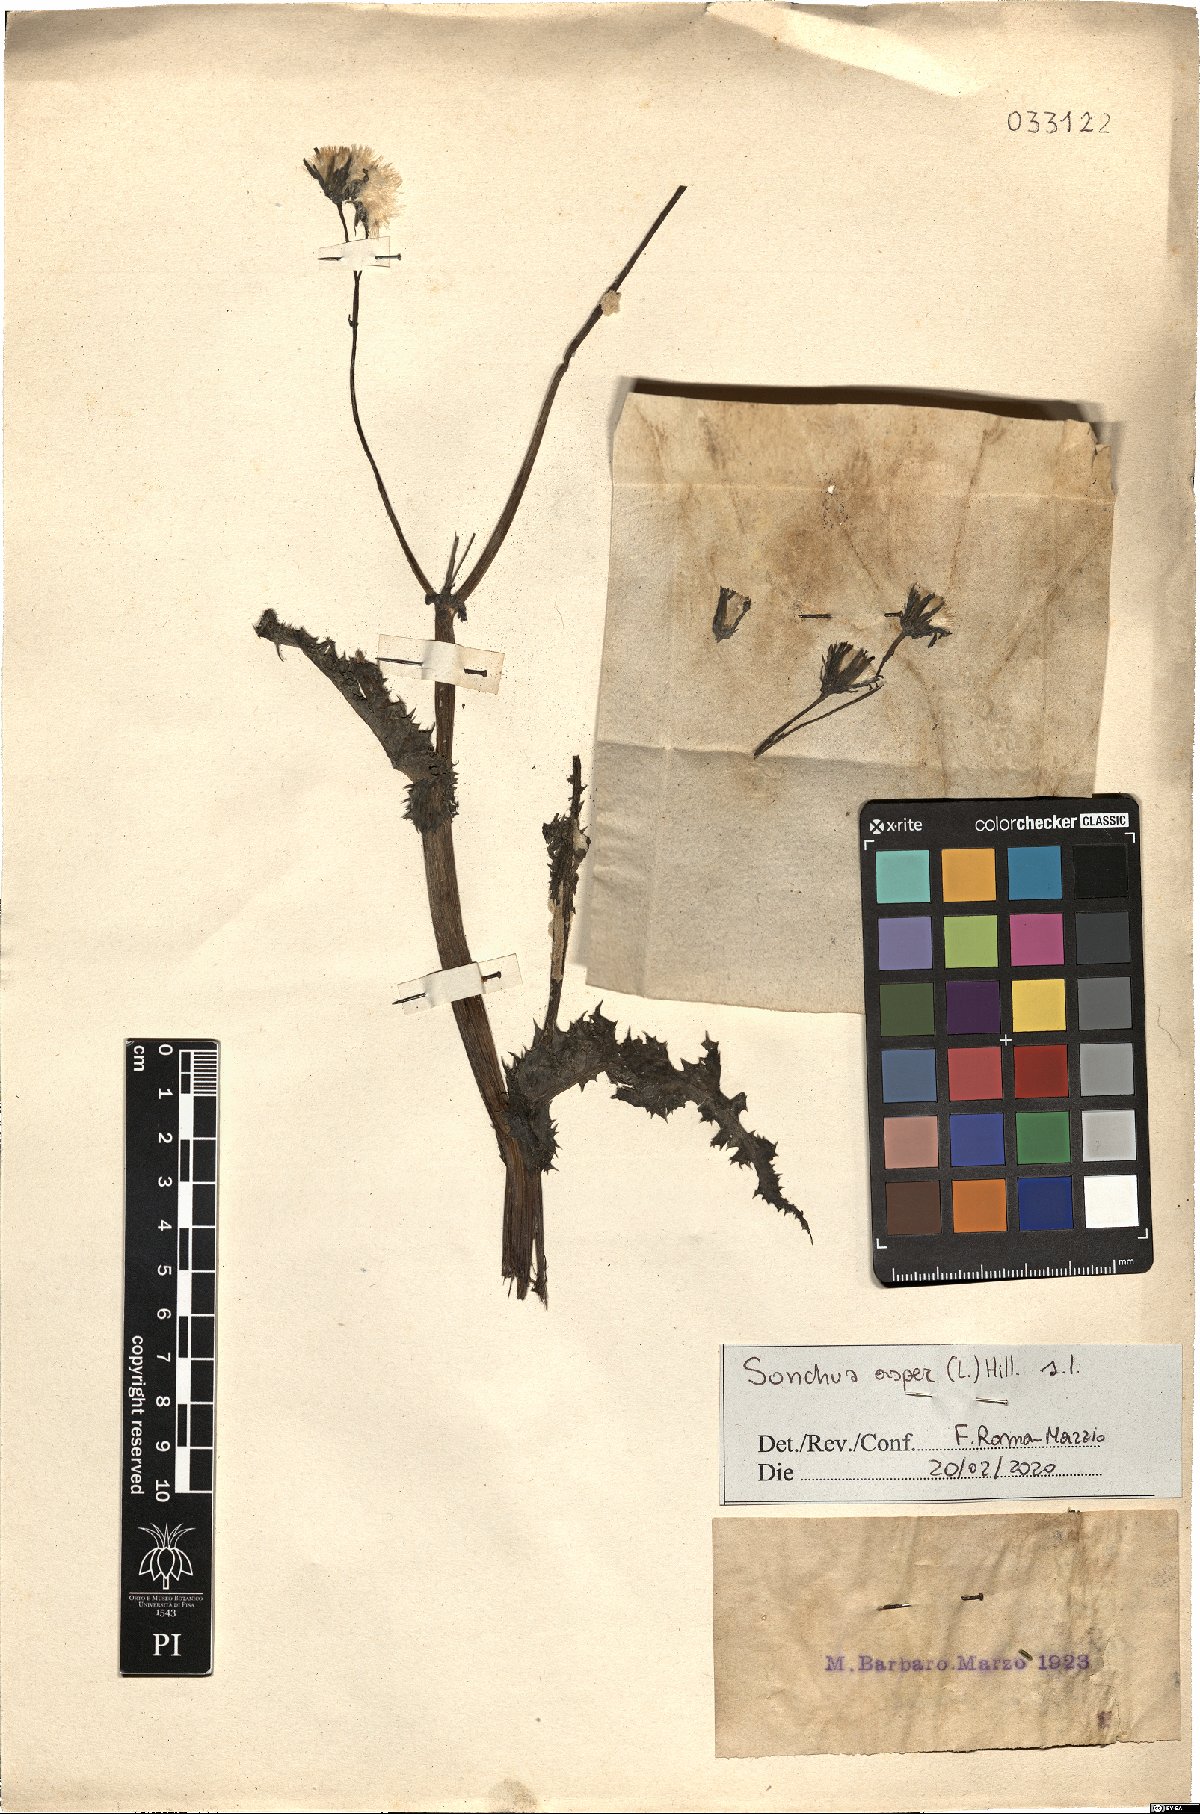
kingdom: Plantae
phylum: Tracheophyta
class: Magnoliopsida
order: Asterales
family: Asteraceae
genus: Sonchus
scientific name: Sonchus asper
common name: Prickly sow-thistle
